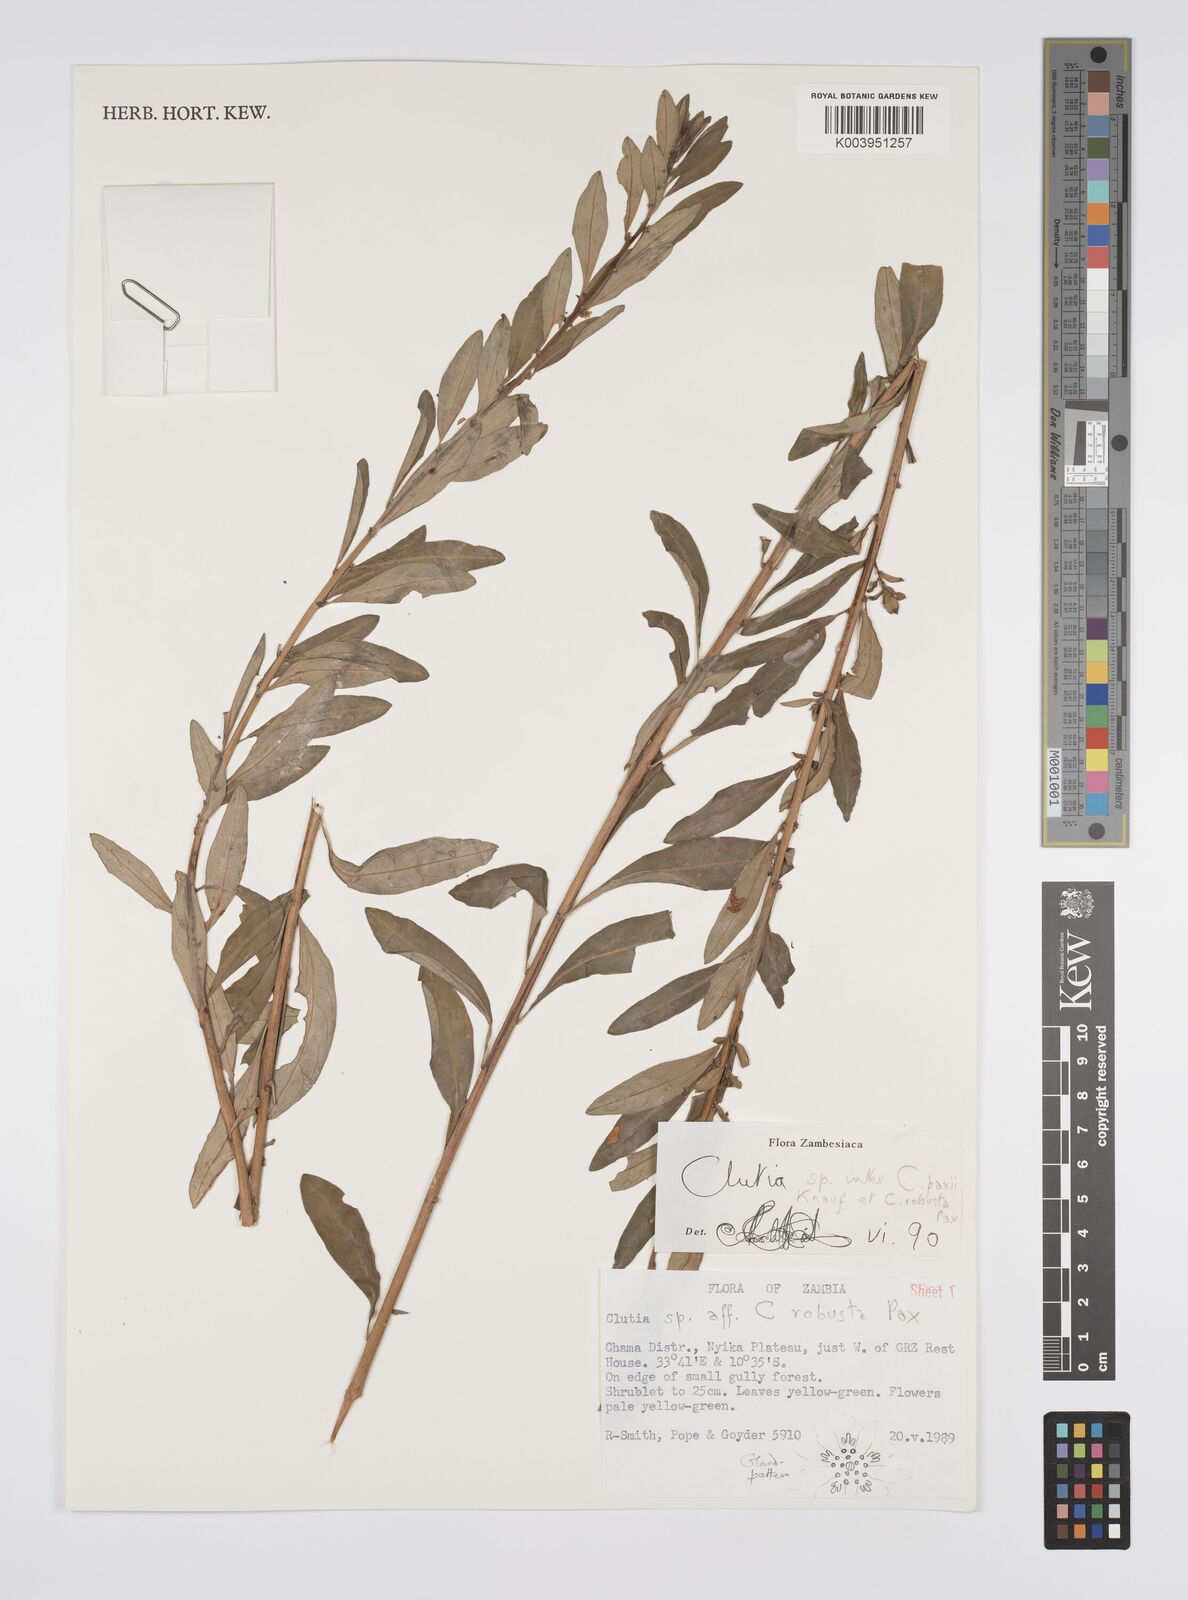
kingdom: Plantae
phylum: Tracheophyta
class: Magnoliopsida
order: Malpighiales
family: Peraceae
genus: Clutia
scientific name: Clutia paxii
